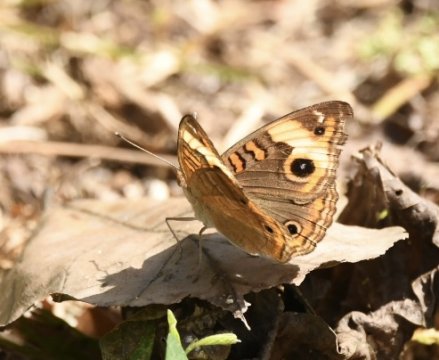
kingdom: Animalia
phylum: Arthropoda
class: Insecta
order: Lepidoptera
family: Nymphalidae
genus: Junonia
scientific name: Junonia lavinia
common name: Tropical Buckeye
